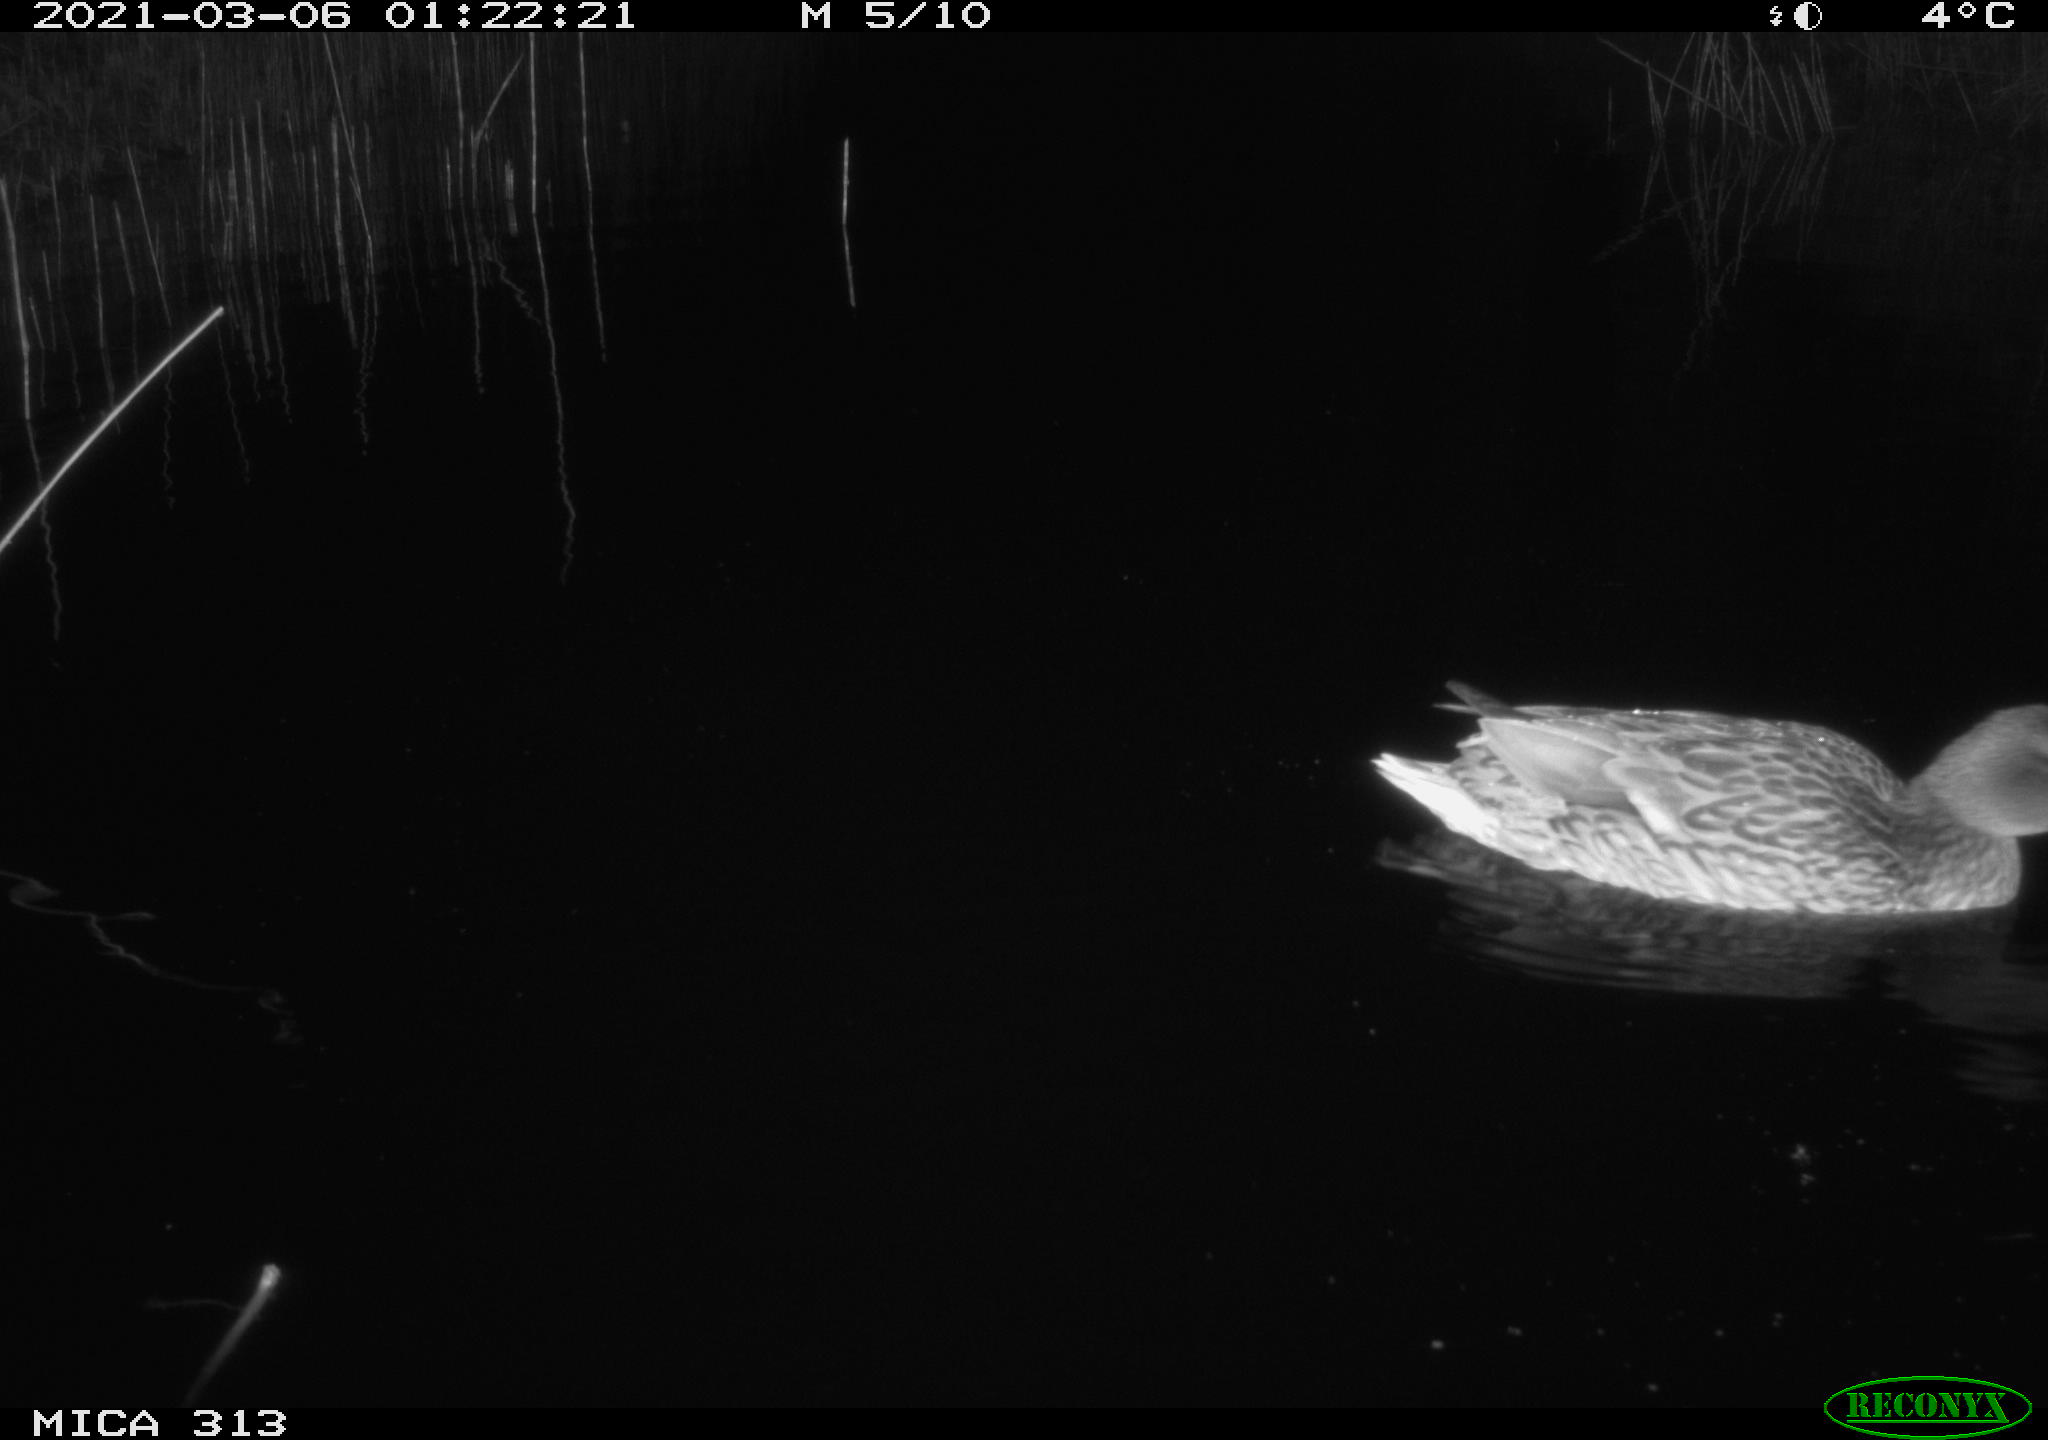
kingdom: Animalia
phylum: Chordata
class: Aves
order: Anseriformes
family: Anatidae
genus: Anas
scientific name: Anas platyrhynchos
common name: Mallard
